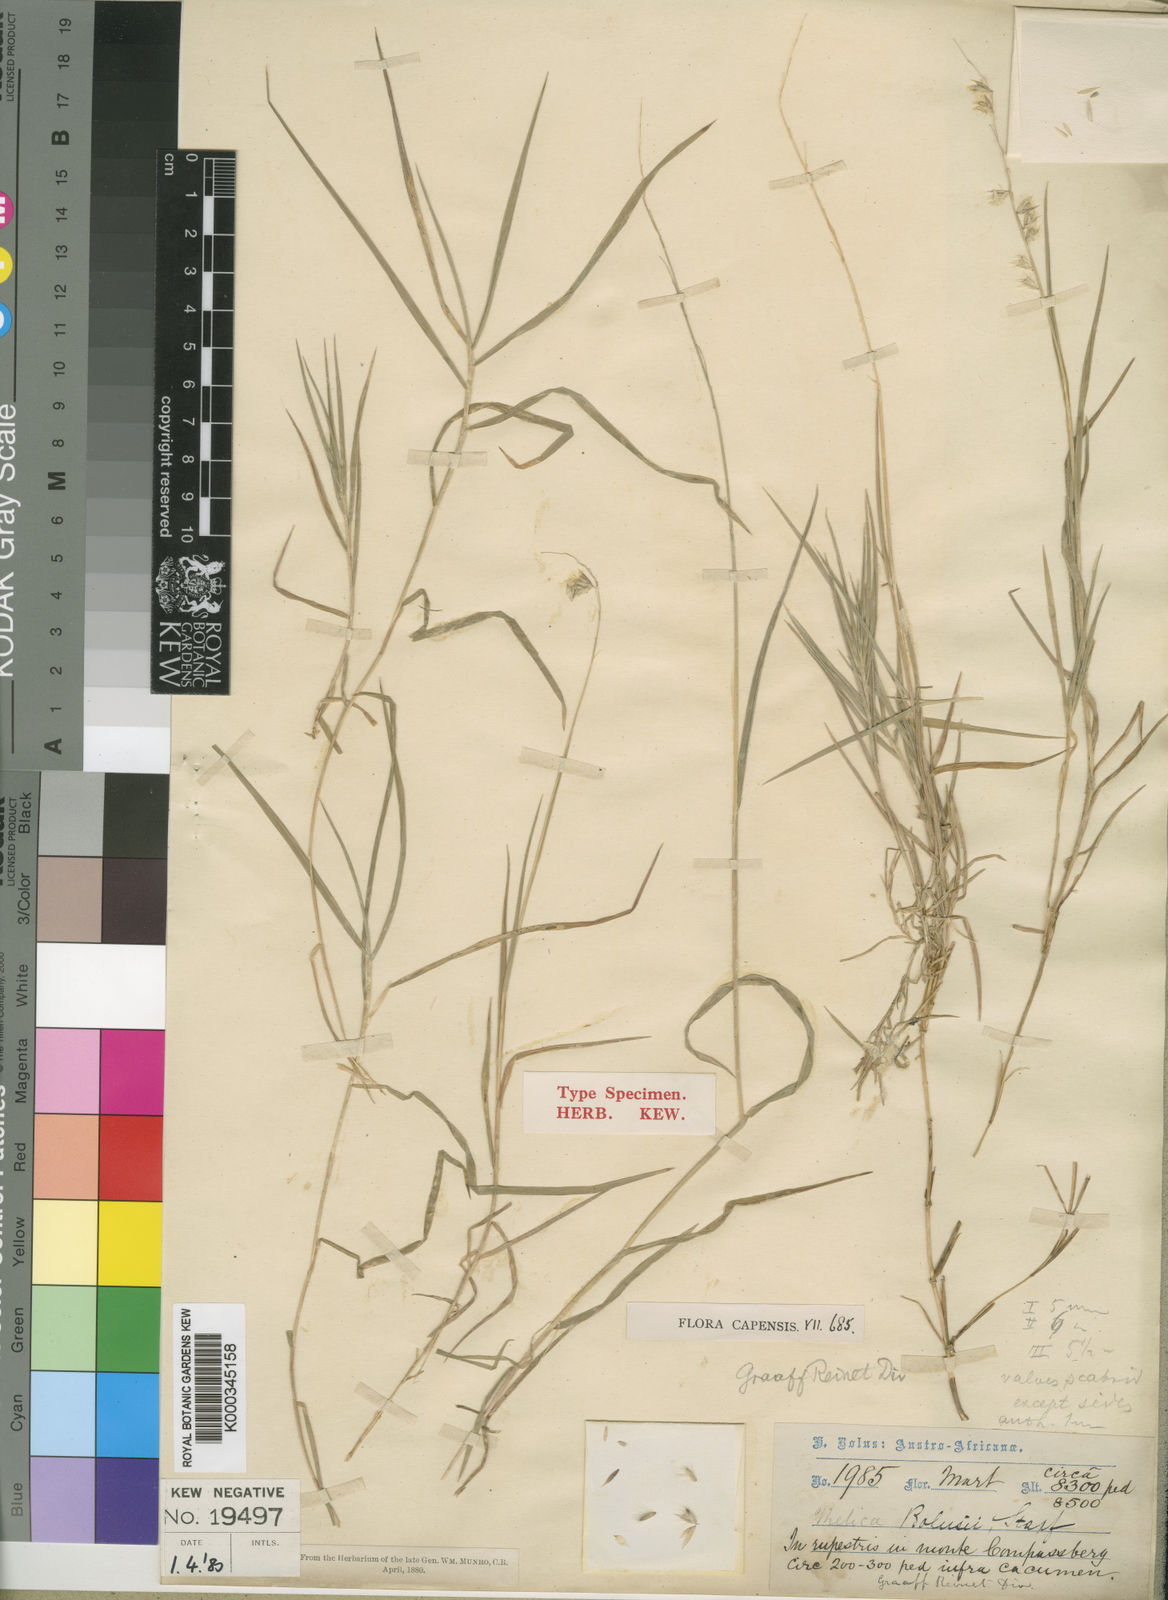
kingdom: Plantae
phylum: Tracheophyta
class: Liliopsida
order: Poales
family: Poaceae
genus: Melica
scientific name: Melica racemosa
